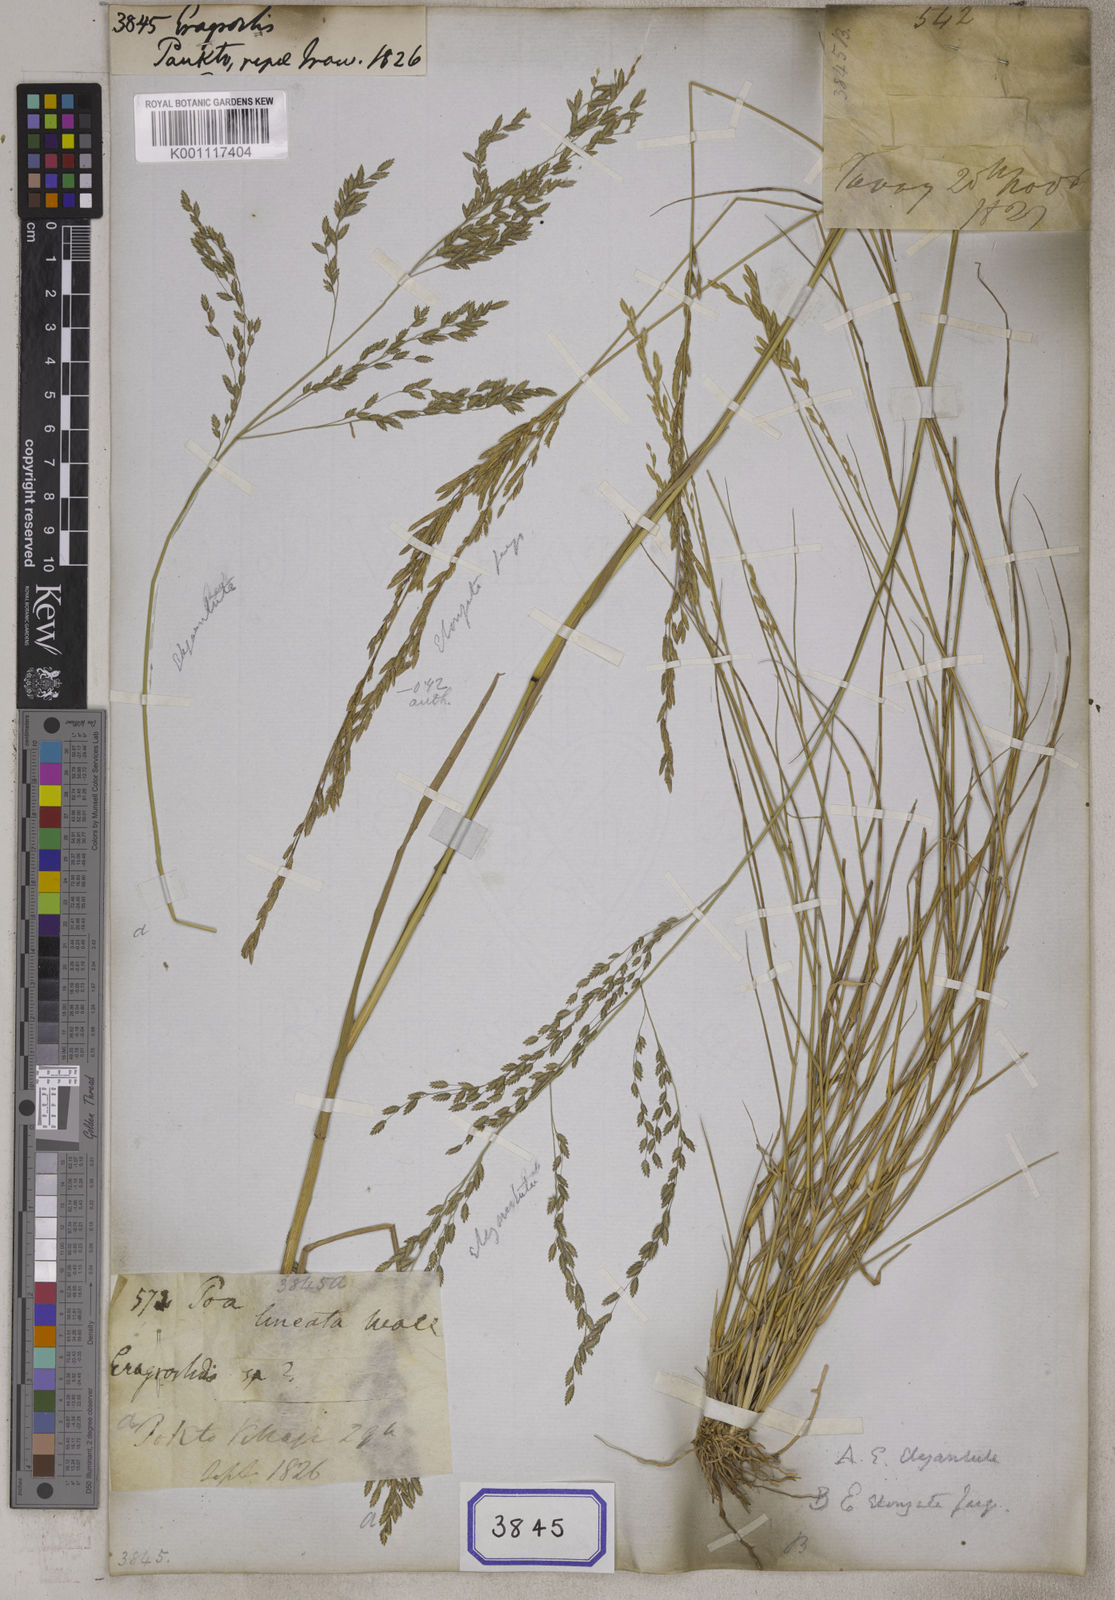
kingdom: Plantae
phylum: Tracheophyta
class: Liliopsida
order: Poales
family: Poaceae
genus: Eragrostis
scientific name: Eragrostis
